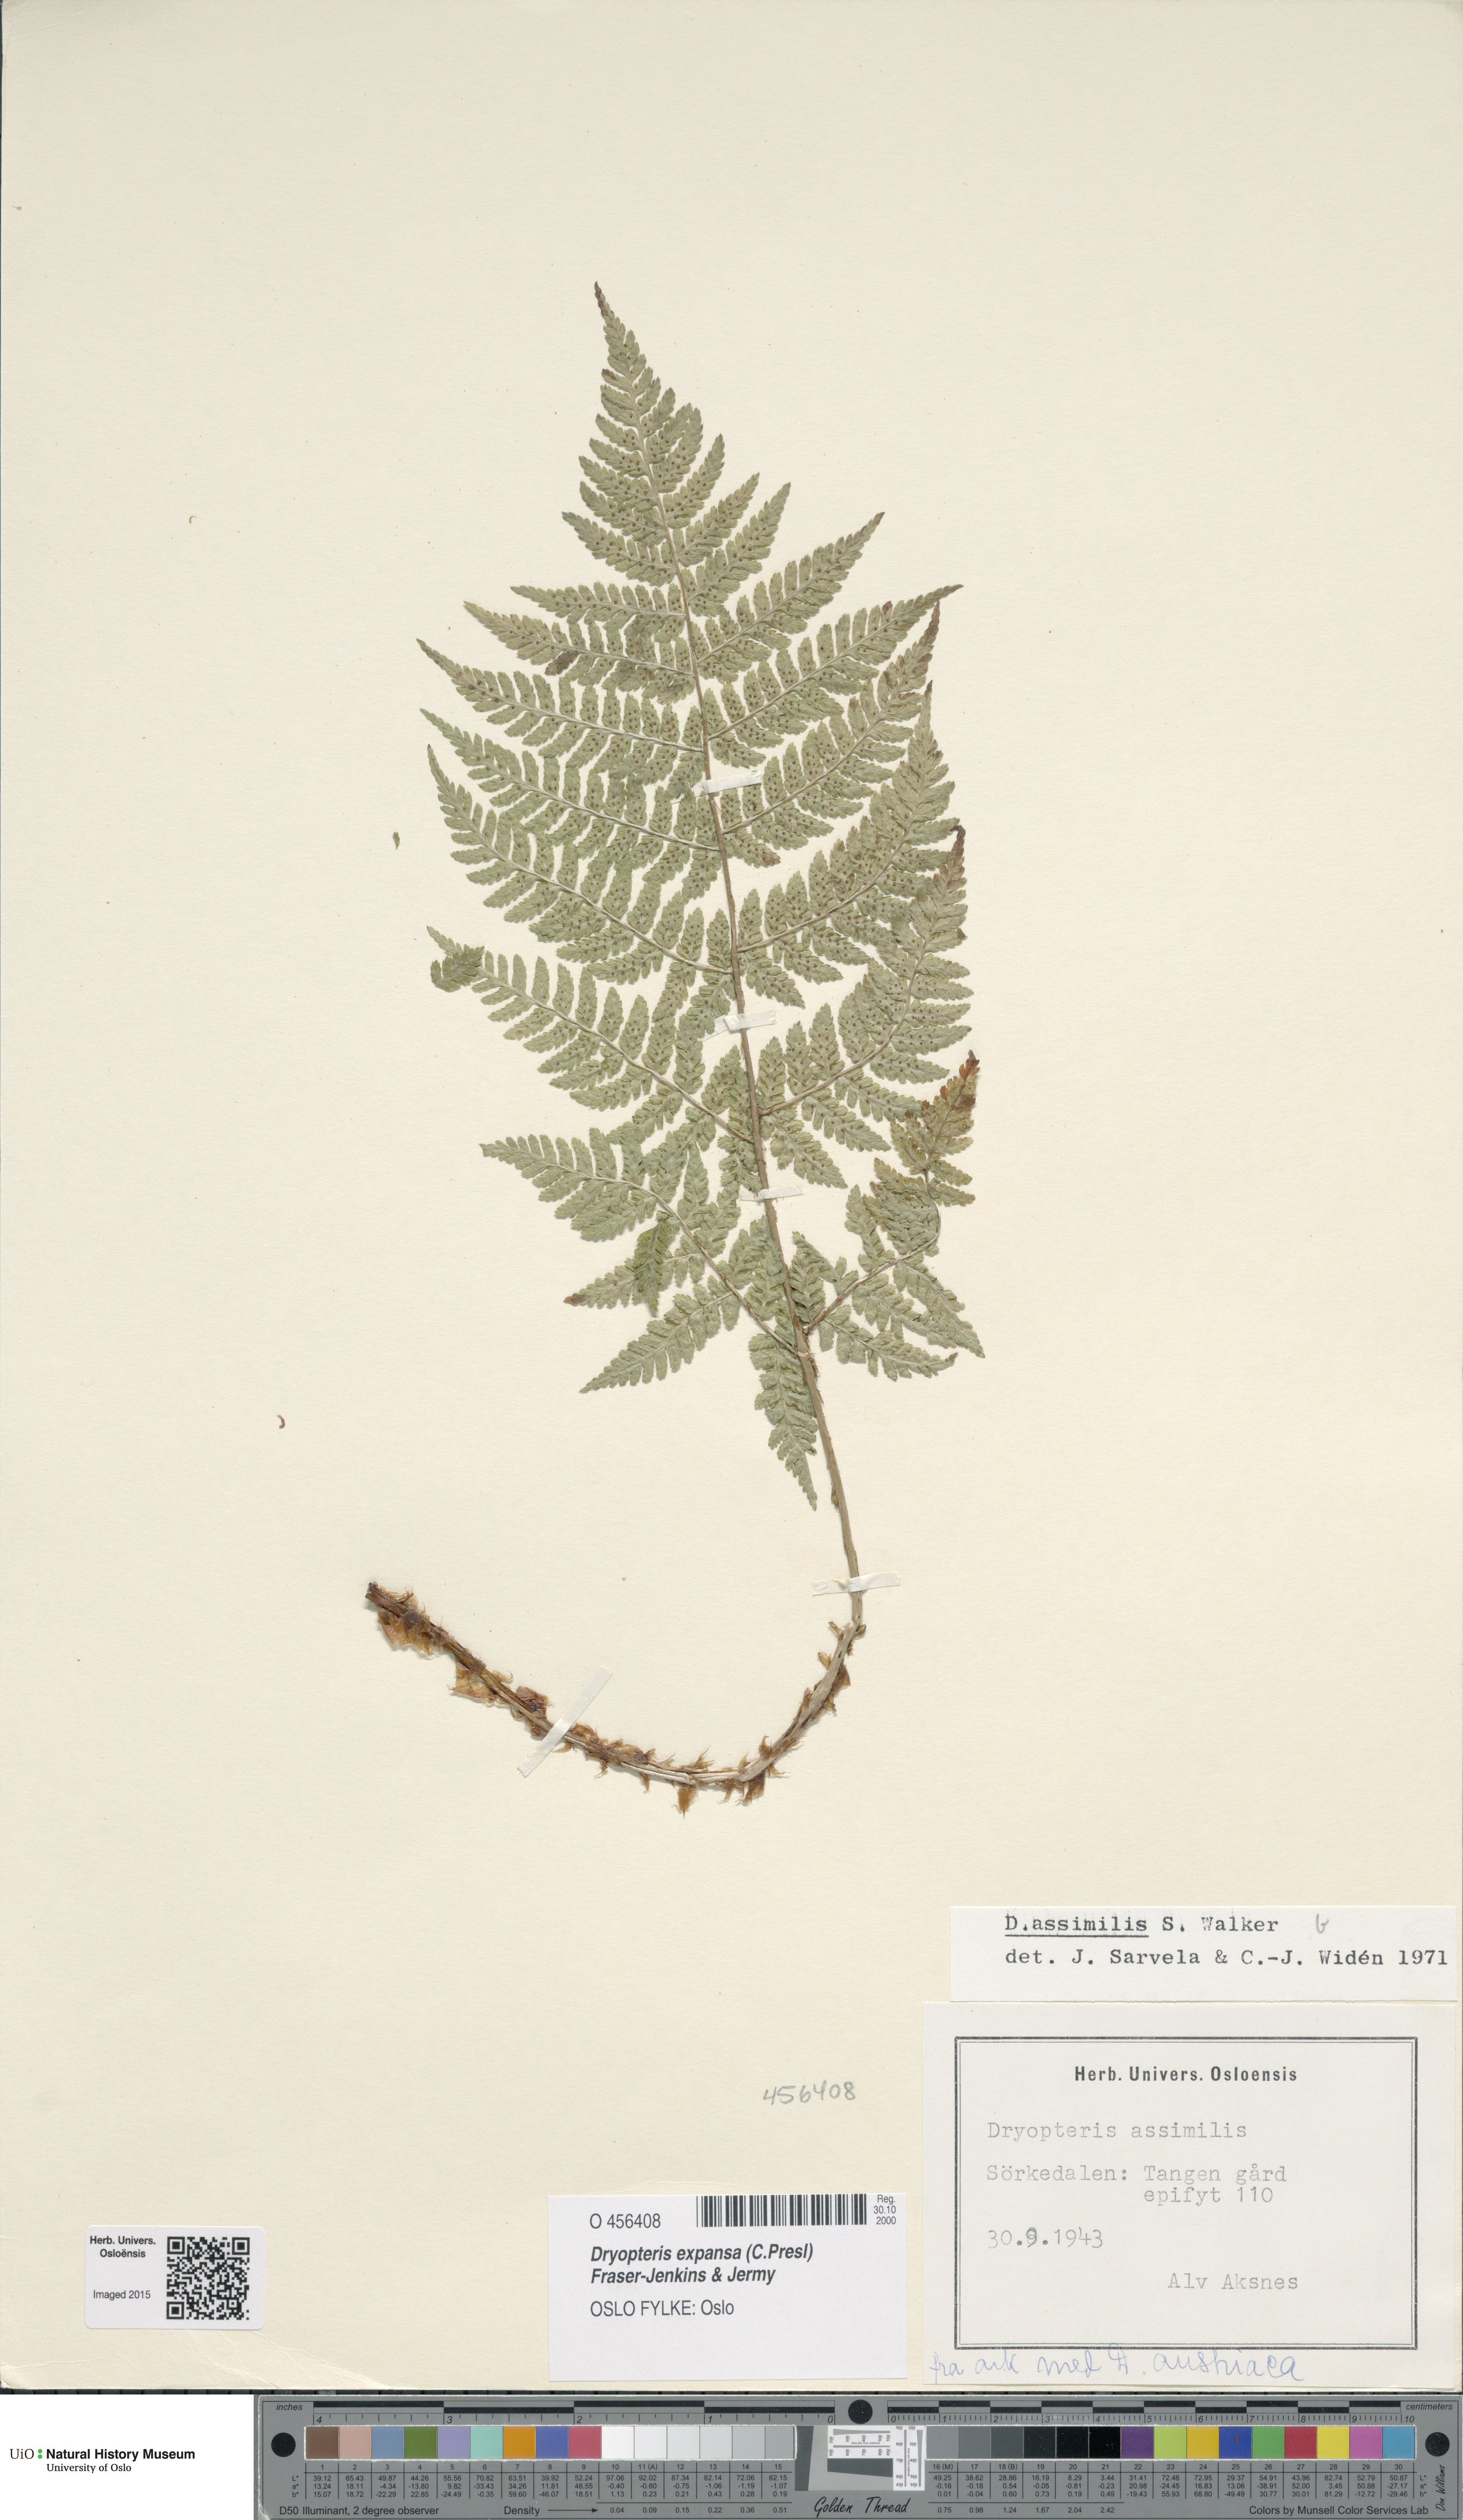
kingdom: Plantae
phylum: Tracheophyta
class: Polypodiopsida
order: Polypodiales
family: Dryopteridaceae
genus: Dryopteris
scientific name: Dryopteris expansa
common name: Northern buckler fern
